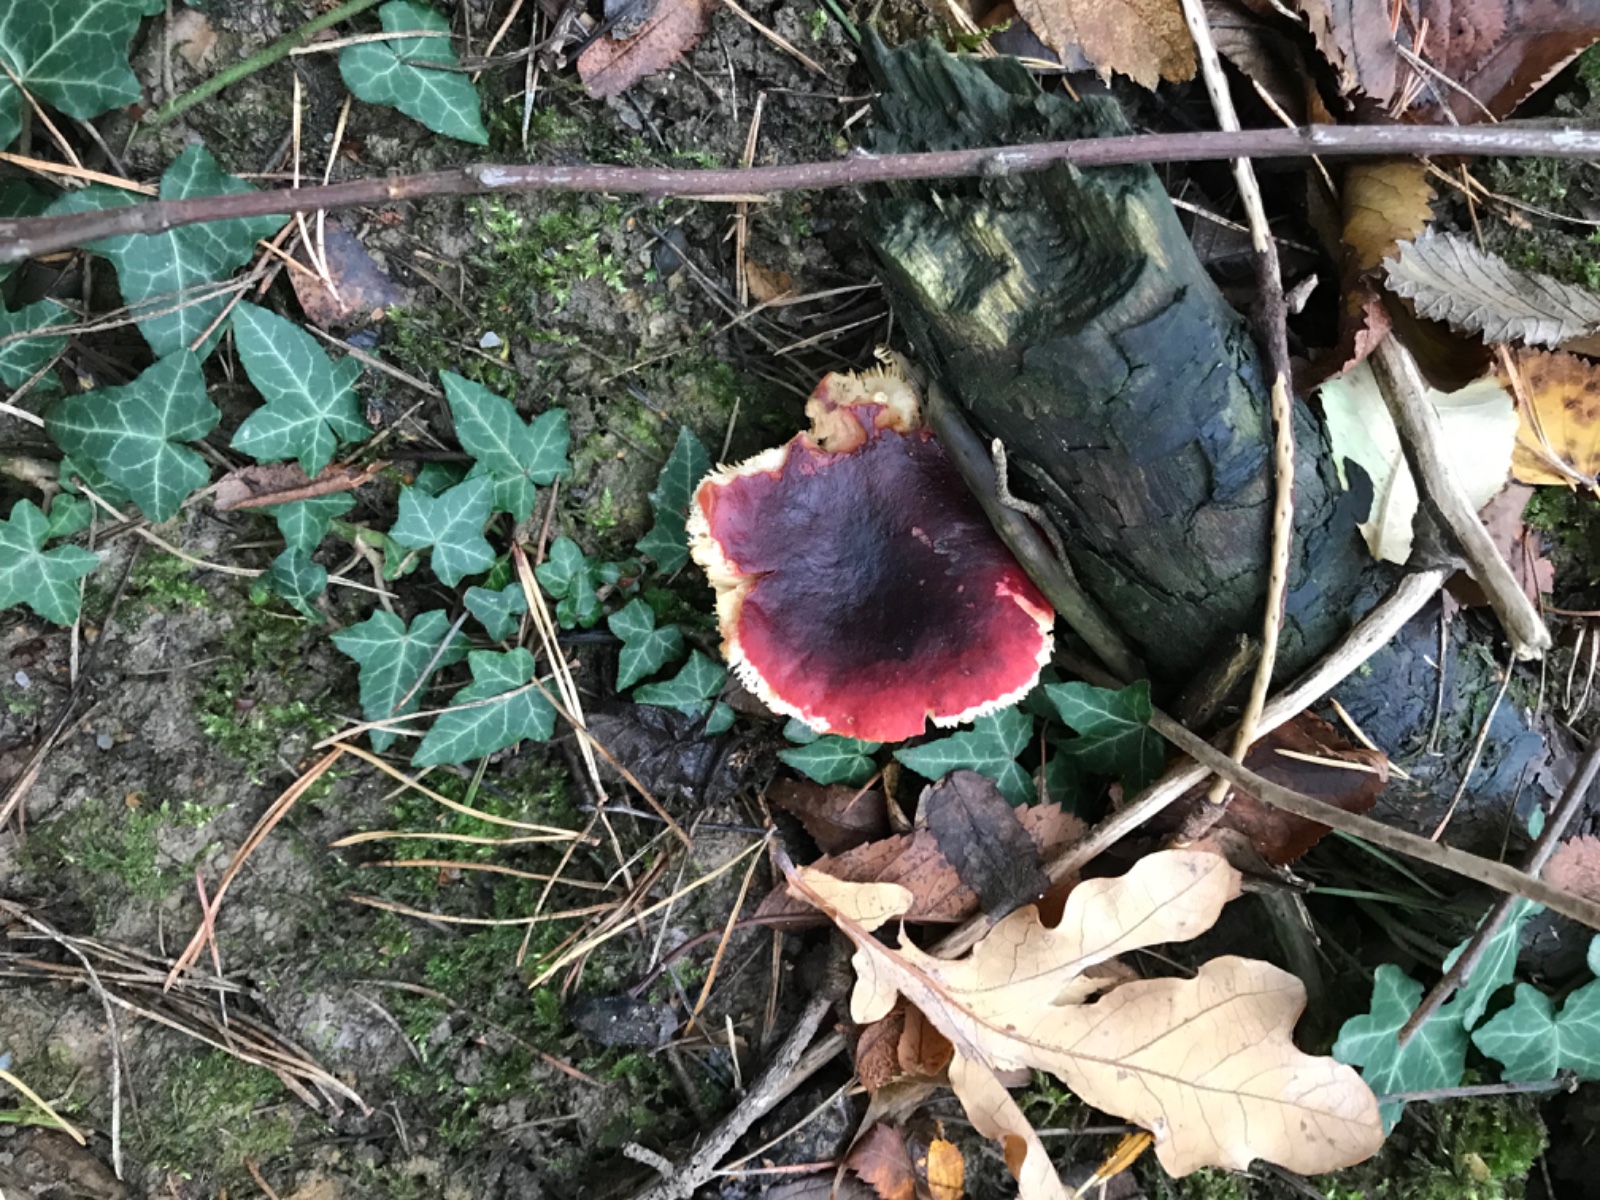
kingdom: Fungi
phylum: Basidiomycota
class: Agaricomycetes
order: Russulales
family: Russulaceae
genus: Russula
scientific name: Russula sardonia
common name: citronbladet skørhat
